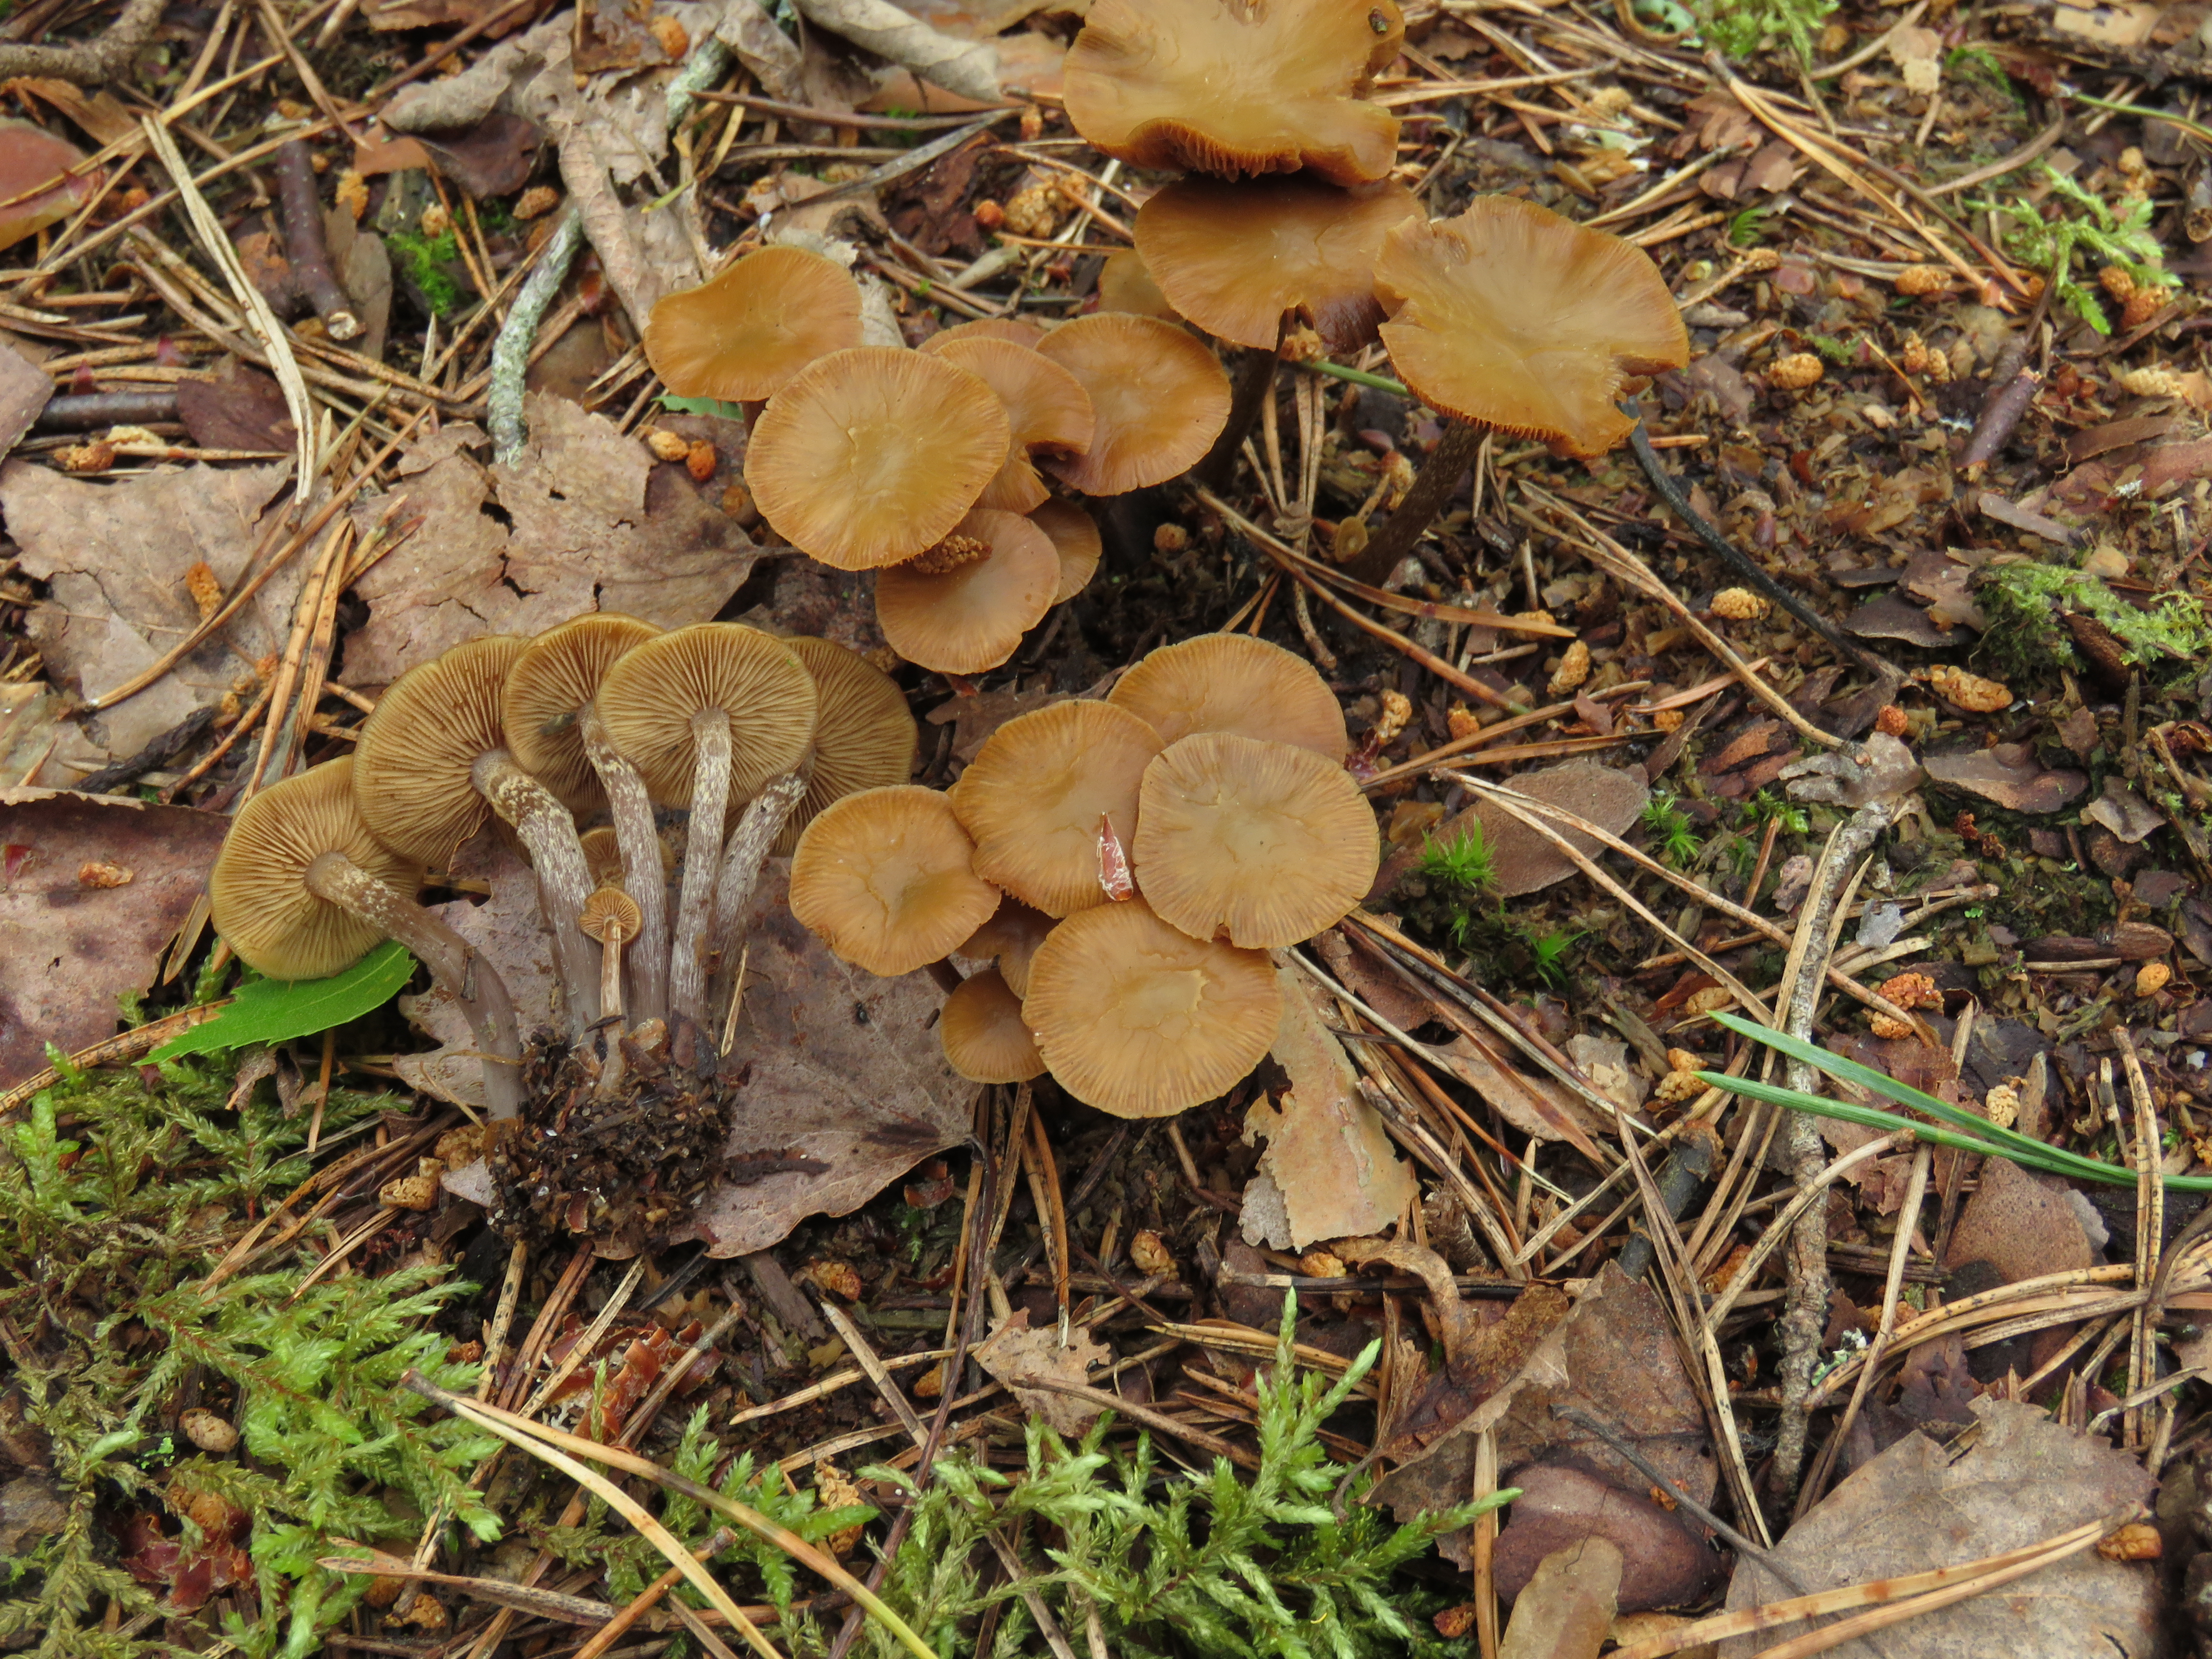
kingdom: Fungi
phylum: Basidiomycota
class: Agaricomycetes
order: Agaricales
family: Strophariaceae
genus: Pholiota
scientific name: Pholiota lignicola
